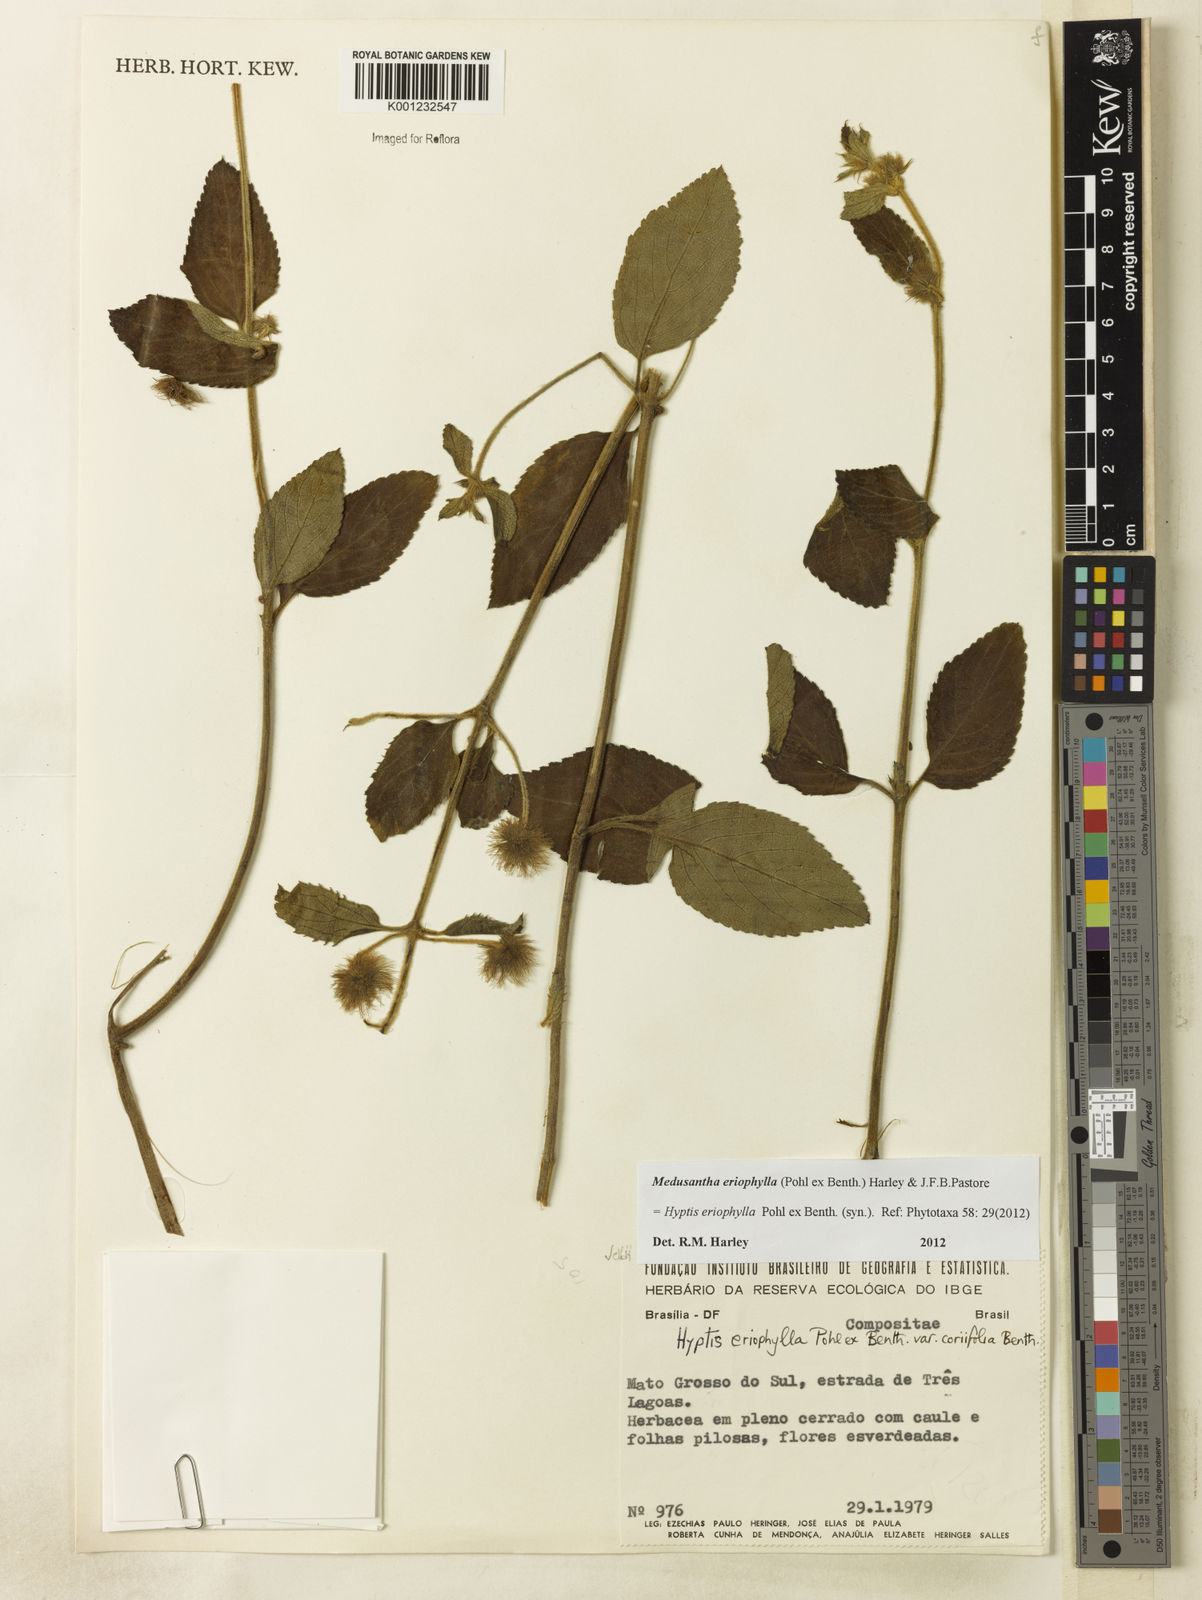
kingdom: Plantae
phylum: Tracheophyta
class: Magnoliopsida
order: Lamiales
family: Lamiaceae
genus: Medusantha
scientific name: Medusantha eriophylla
